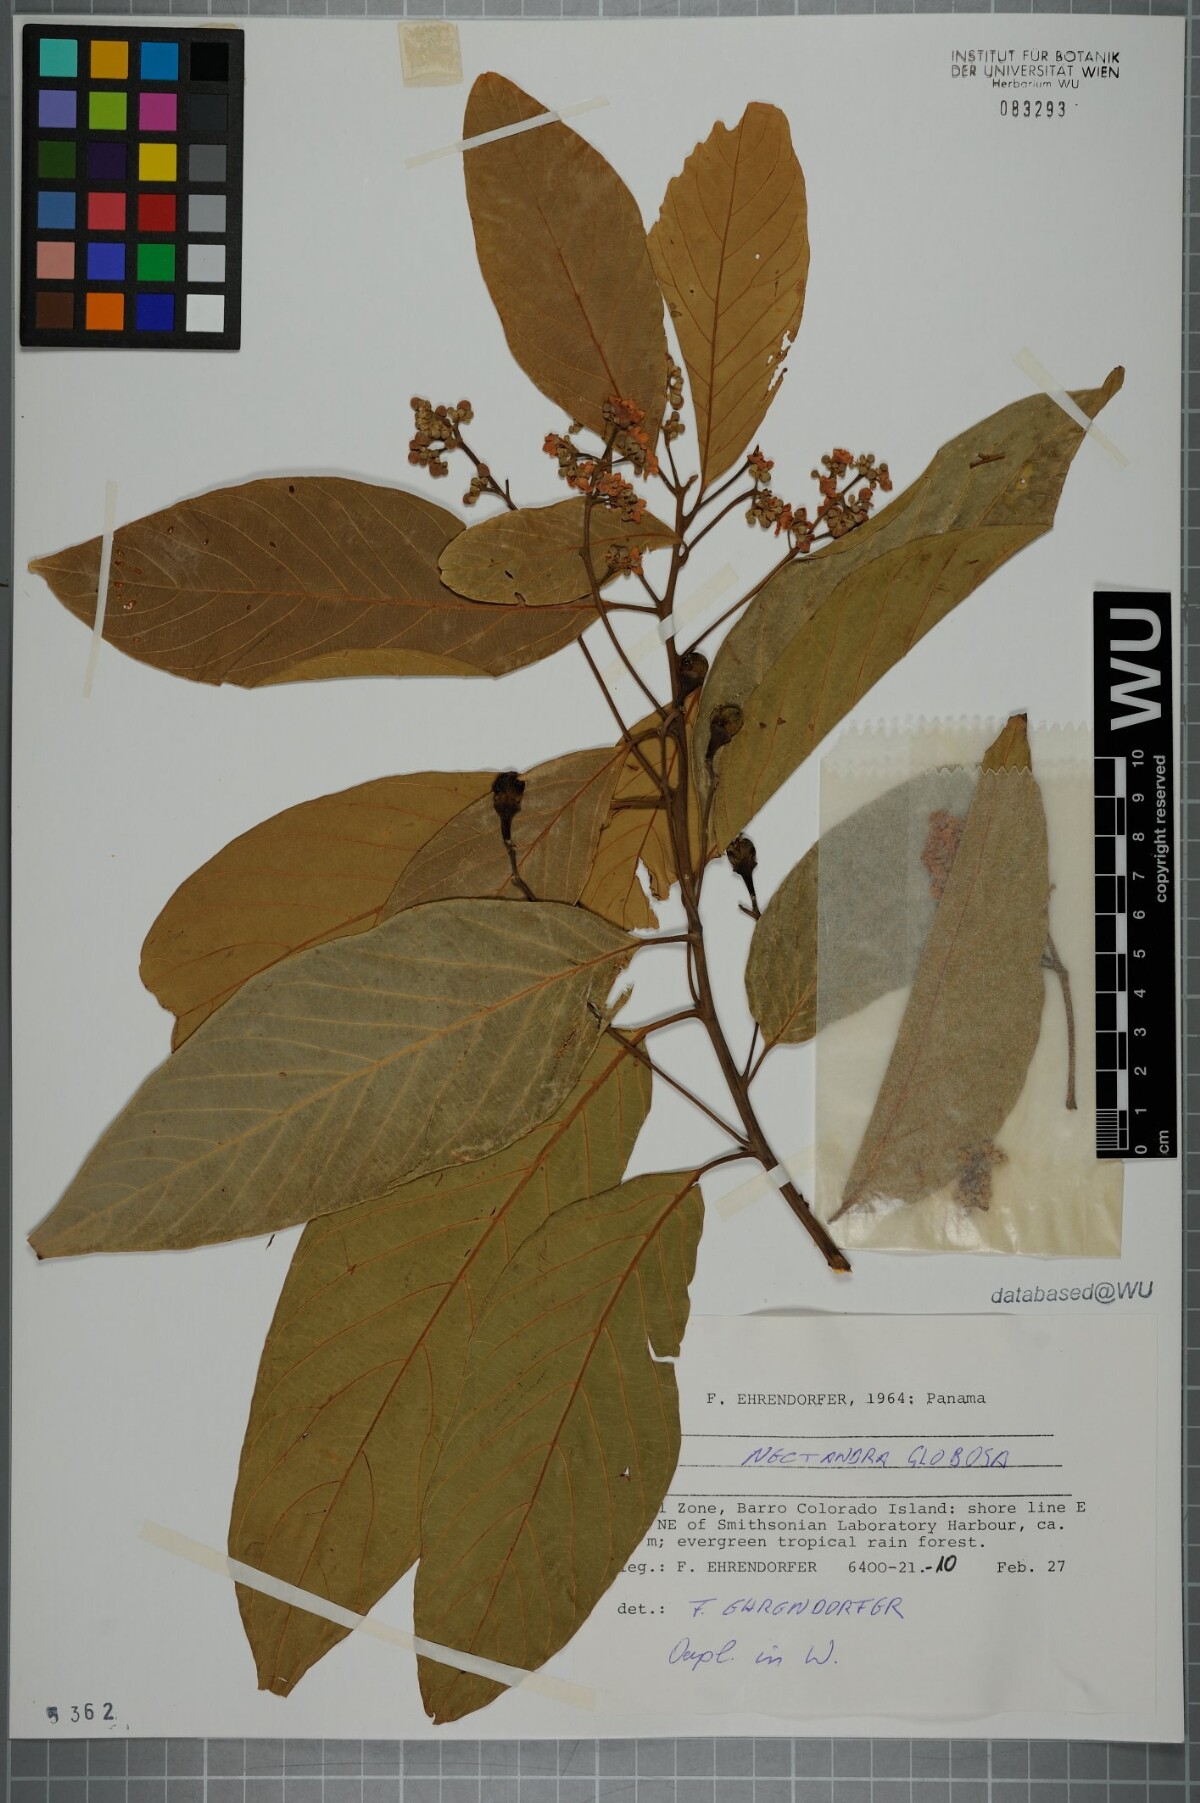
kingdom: Plantae
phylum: Tracheophyta
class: Magnoliopsida
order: Laurales
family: Lauraceae
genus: Nectandra
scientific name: Nectandra globosa
